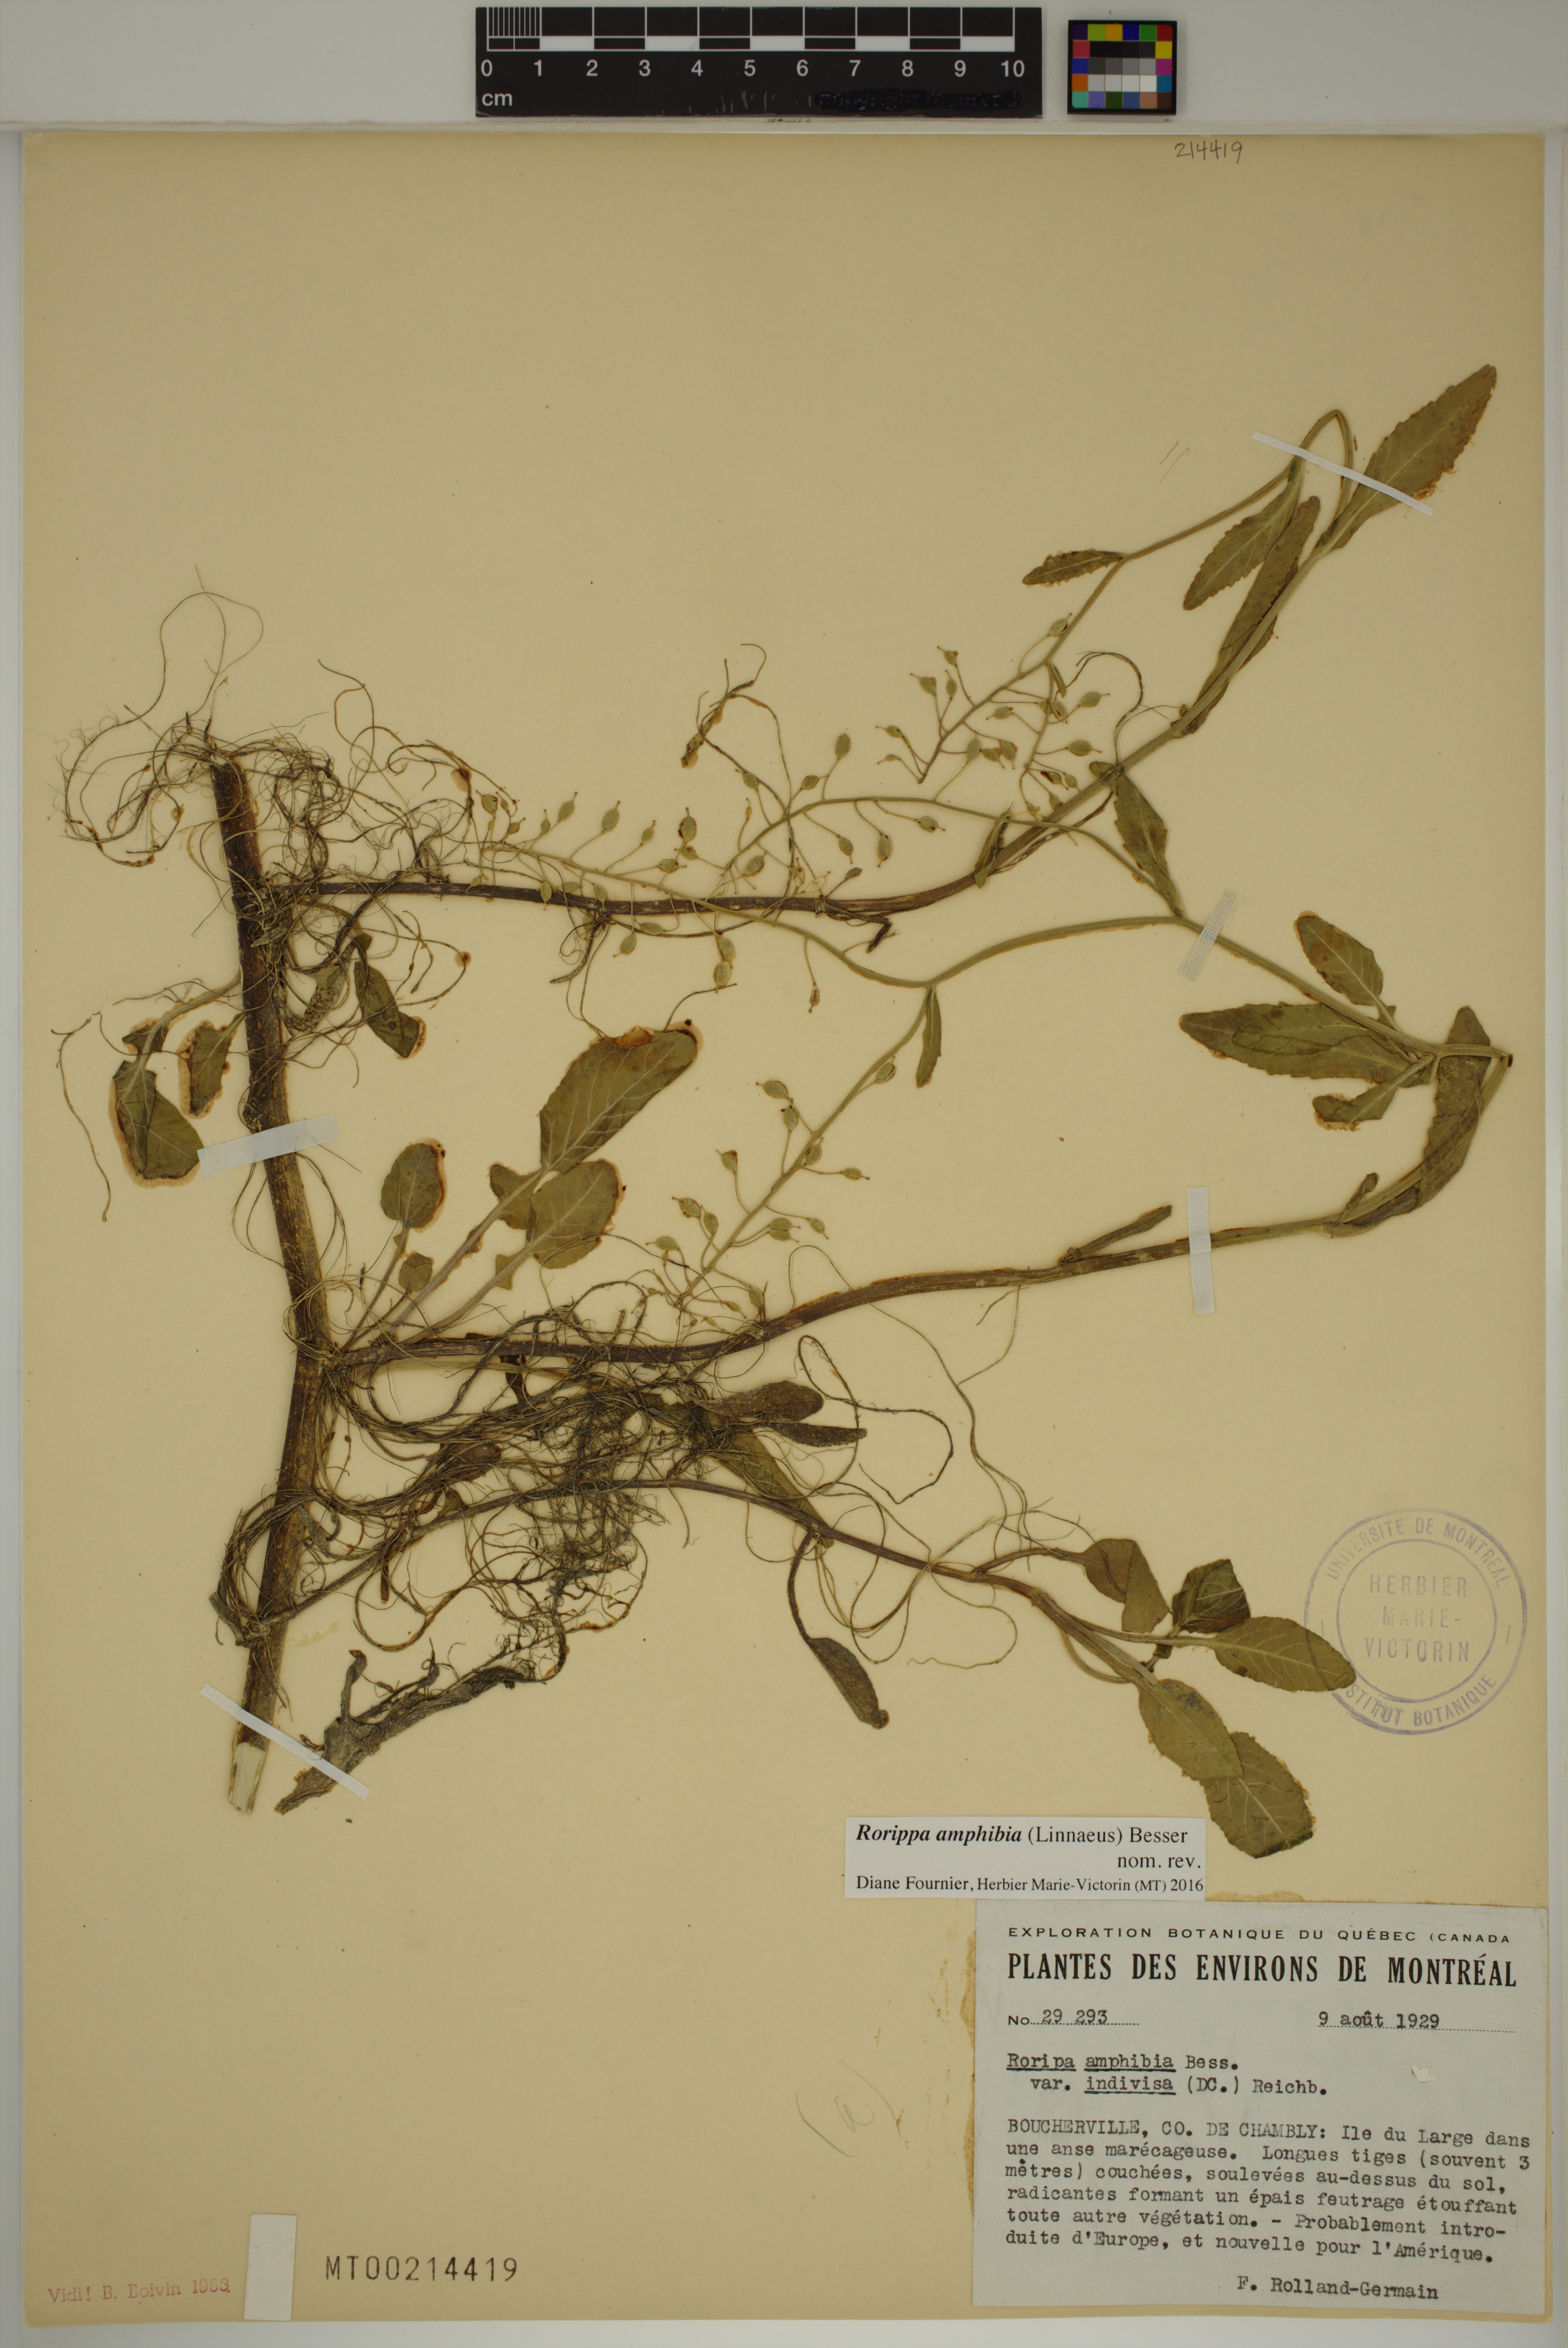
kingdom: Plantae
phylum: Tracheophyta
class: Magnoliopsida
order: Brassicales
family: Brassicaceae
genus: Rorippa
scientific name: Rorippa amphibia
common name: Great yellow-cress
